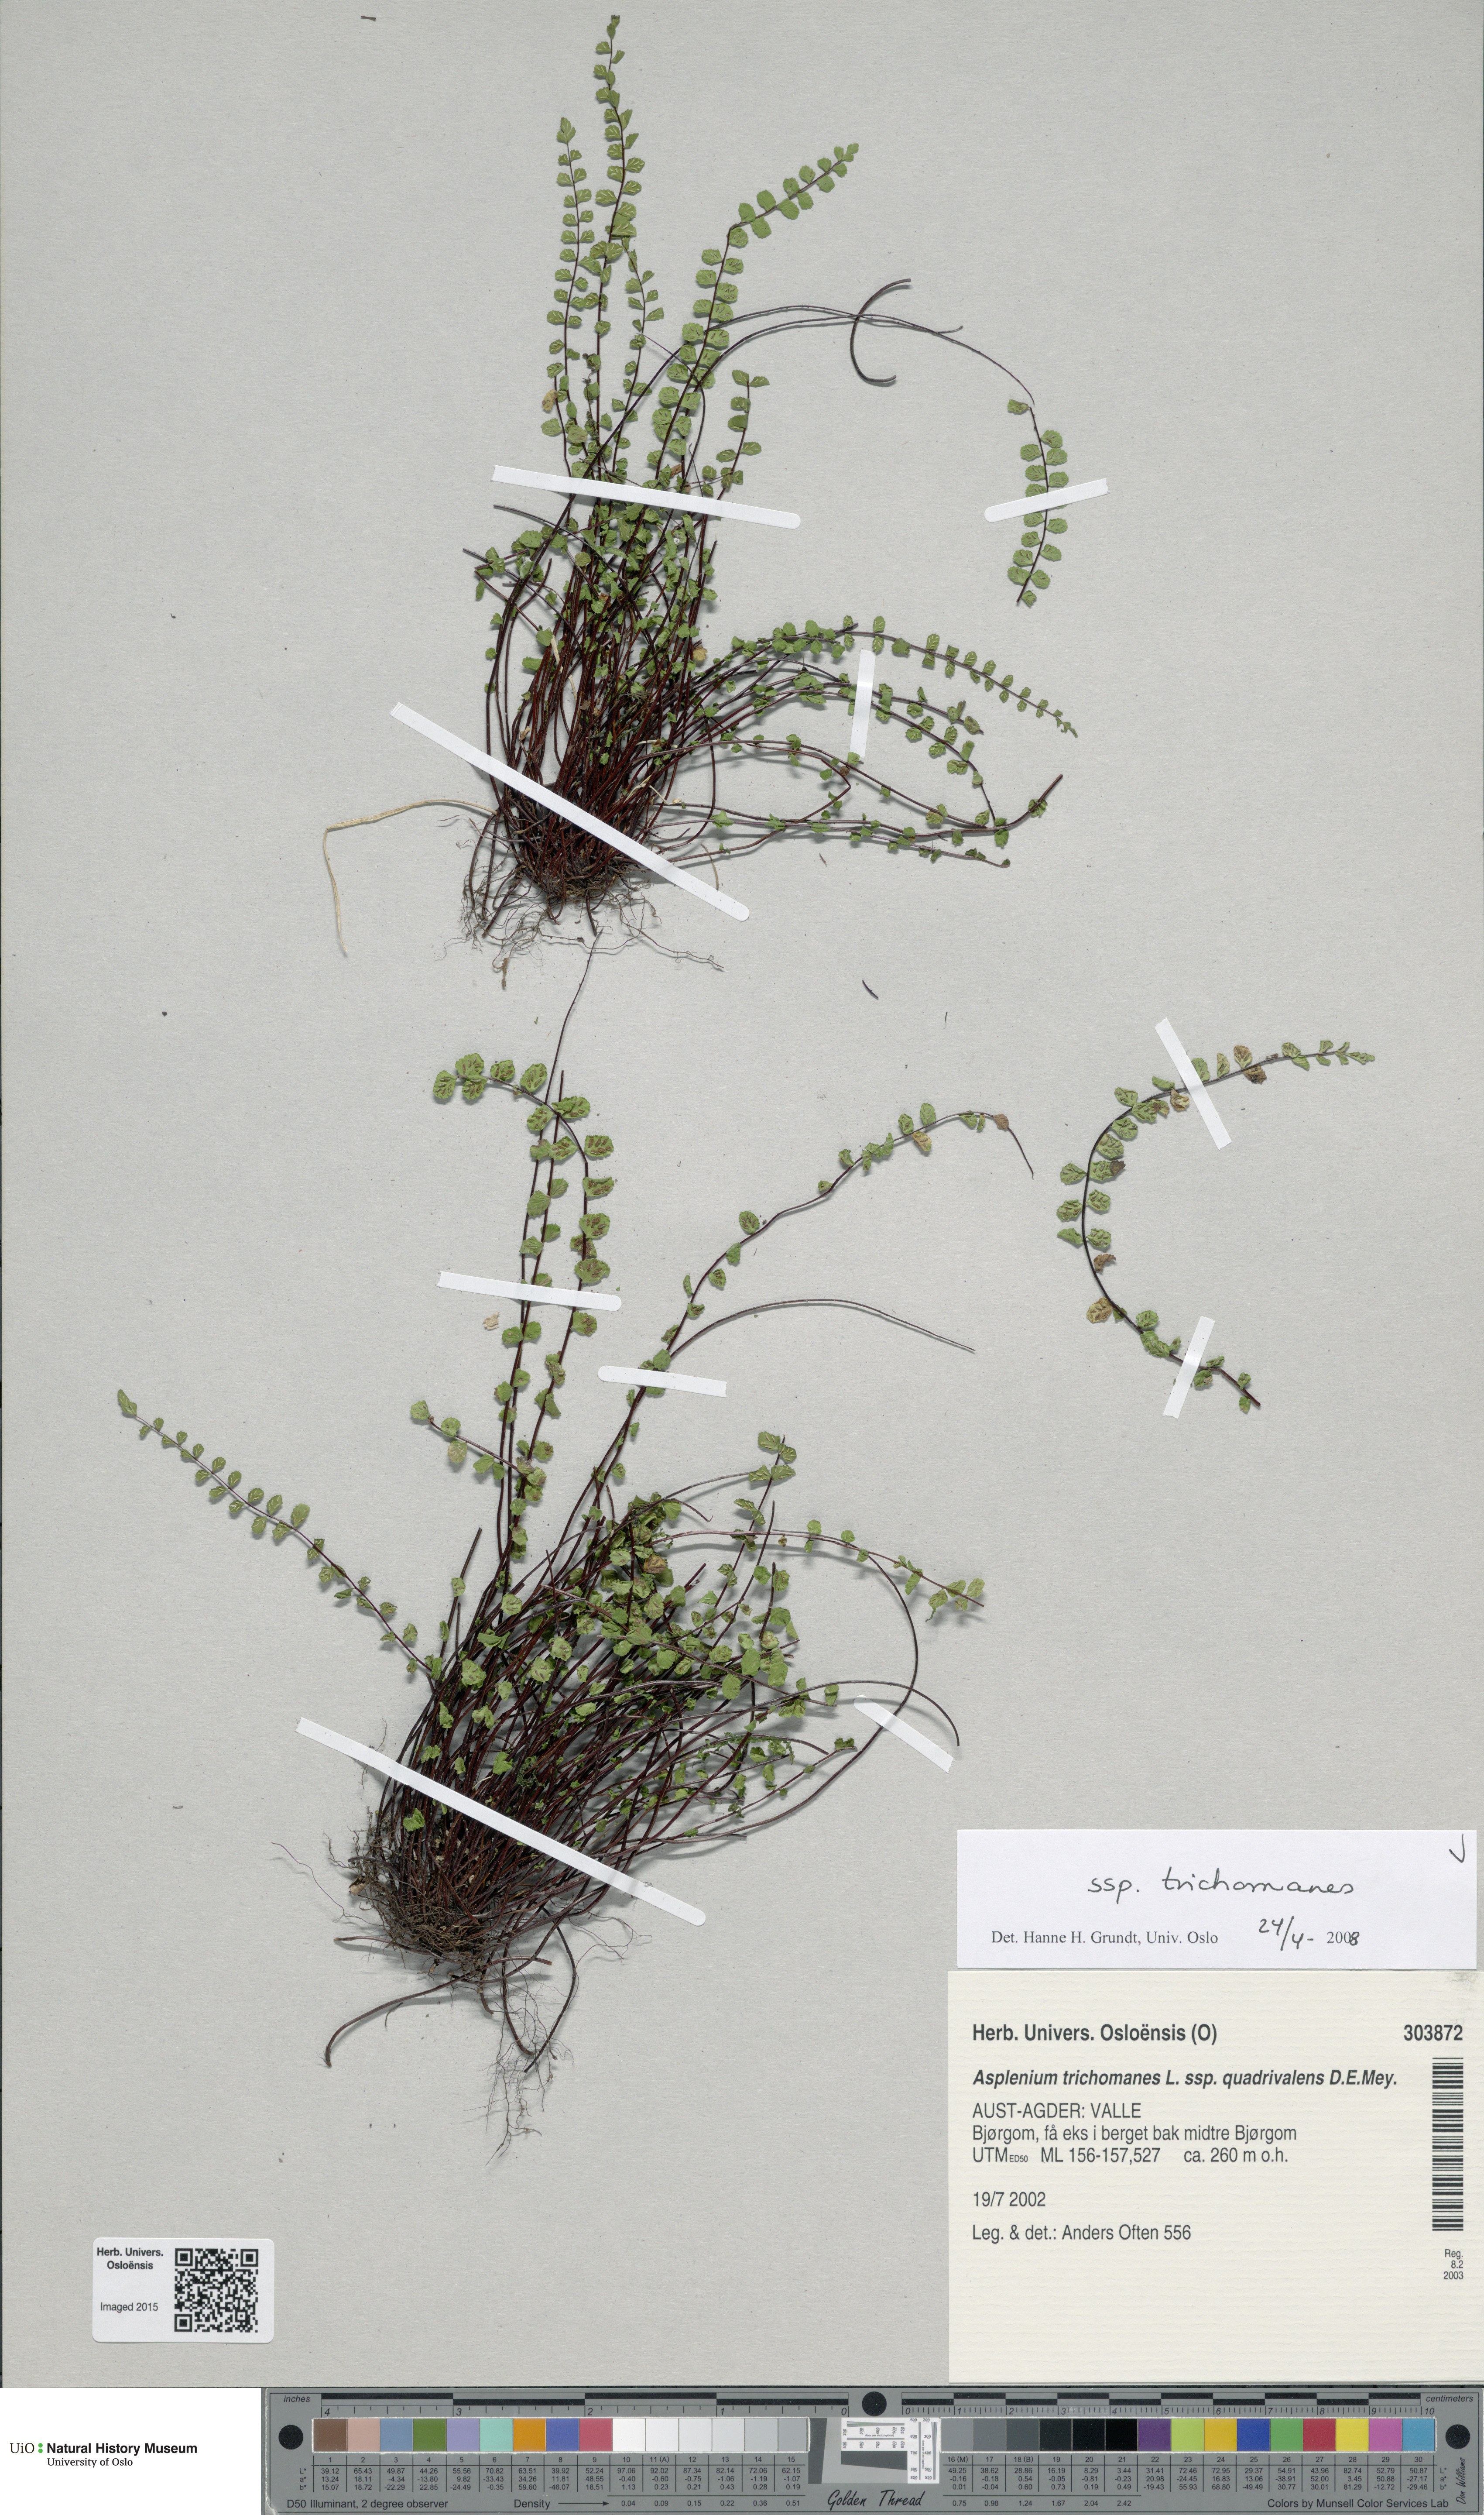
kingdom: Plantae
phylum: Tracheophyta
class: Polypodiopsida
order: Polypodiales
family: Aspleniaceae
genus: Asplenium
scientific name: Asplenium trichomanes
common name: Maidenhair spleenwort
